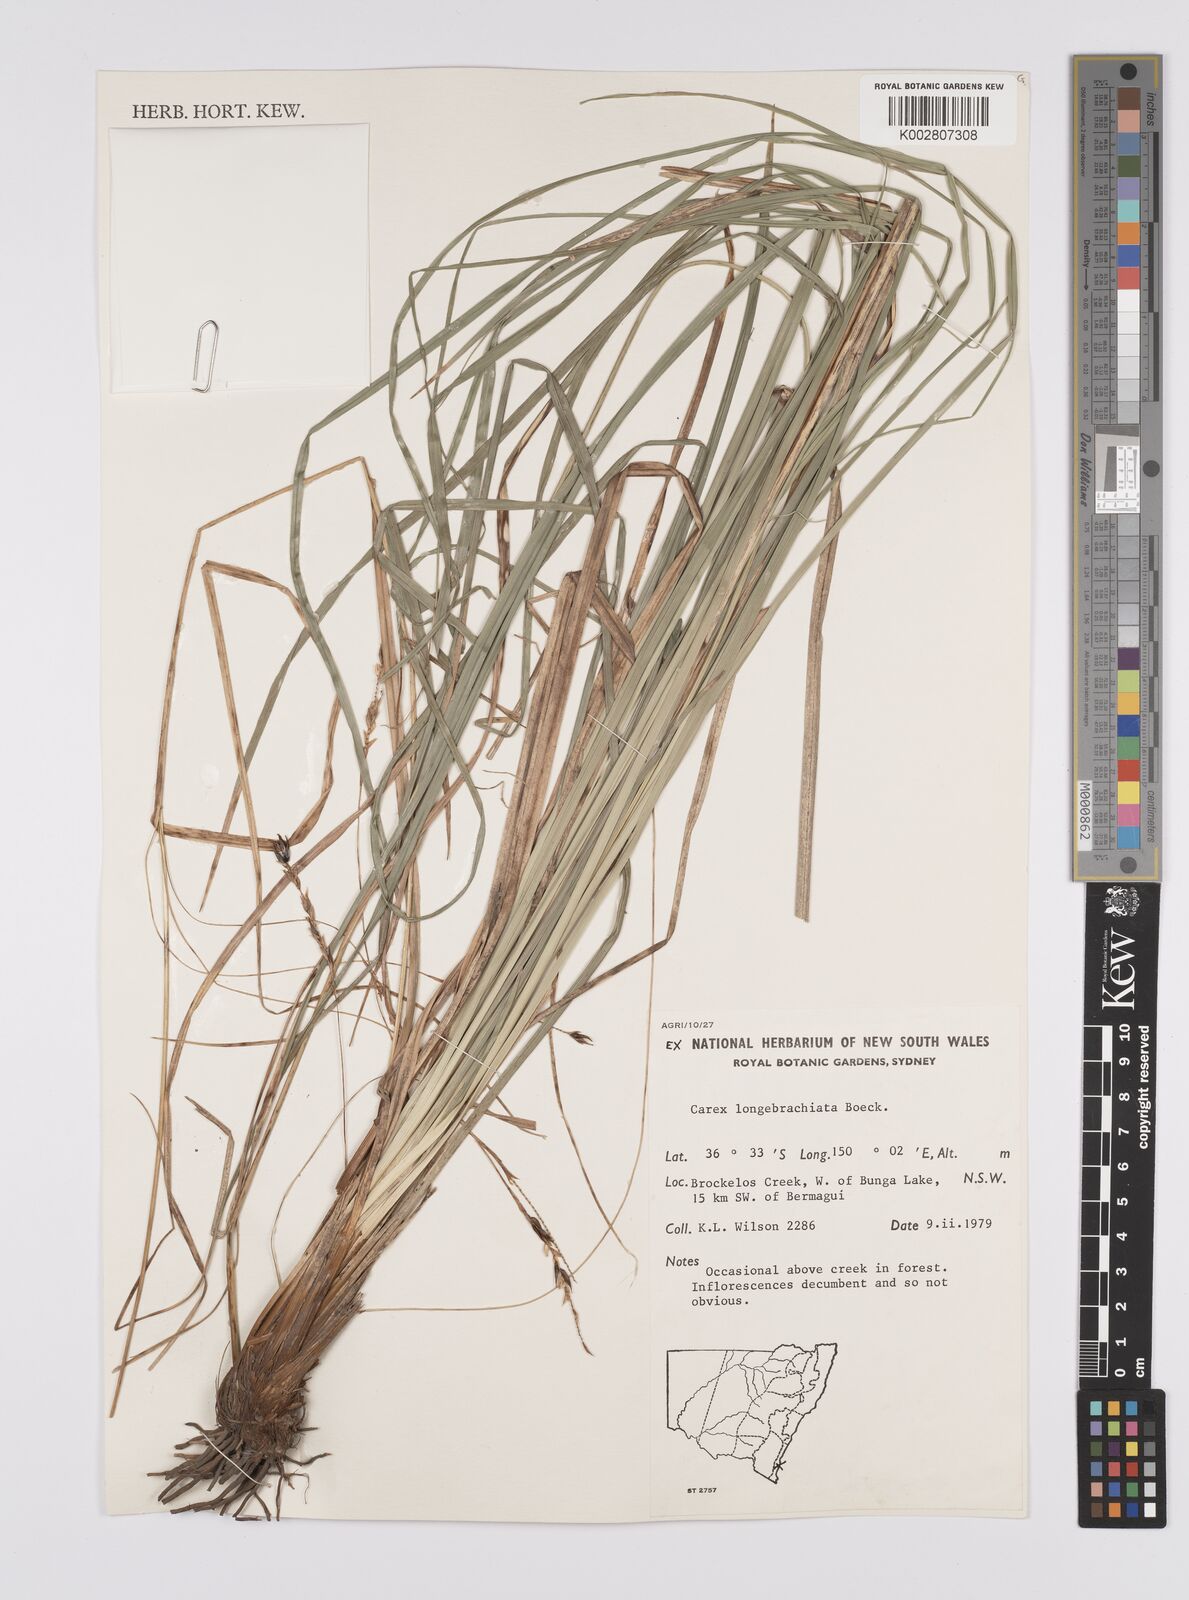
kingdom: Plantae
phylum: Tracheophyta
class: Liliopsida
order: Poales
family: Cyperaceae
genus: Carex
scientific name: Carex pseudocyperus
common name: Cyperus sedge
